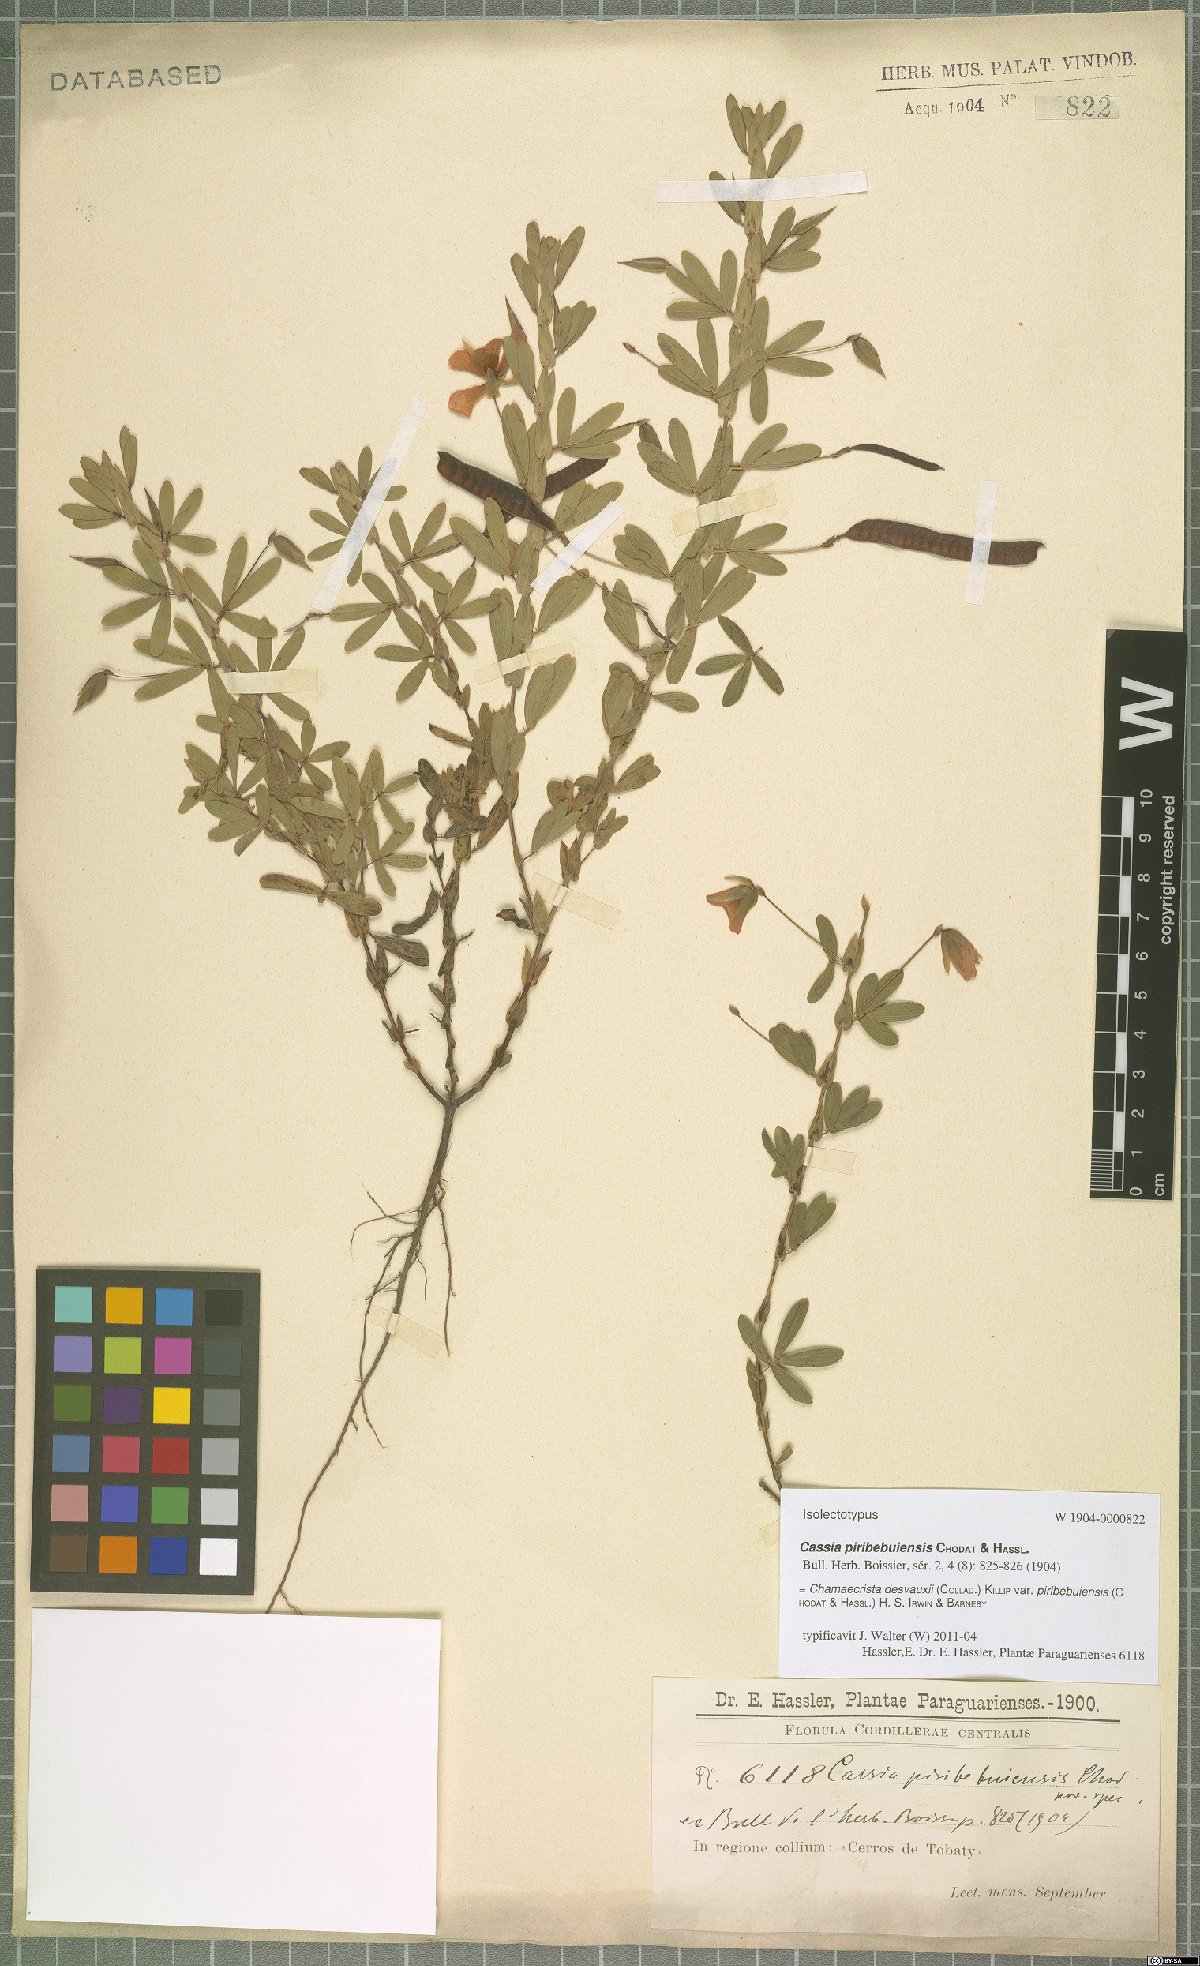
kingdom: Plantae
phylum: Tracheophyta
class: Magnoliopsida
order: Fabales
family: Fabaceae
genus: Chamaecrista
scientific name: Chamaecrista desvauxii
